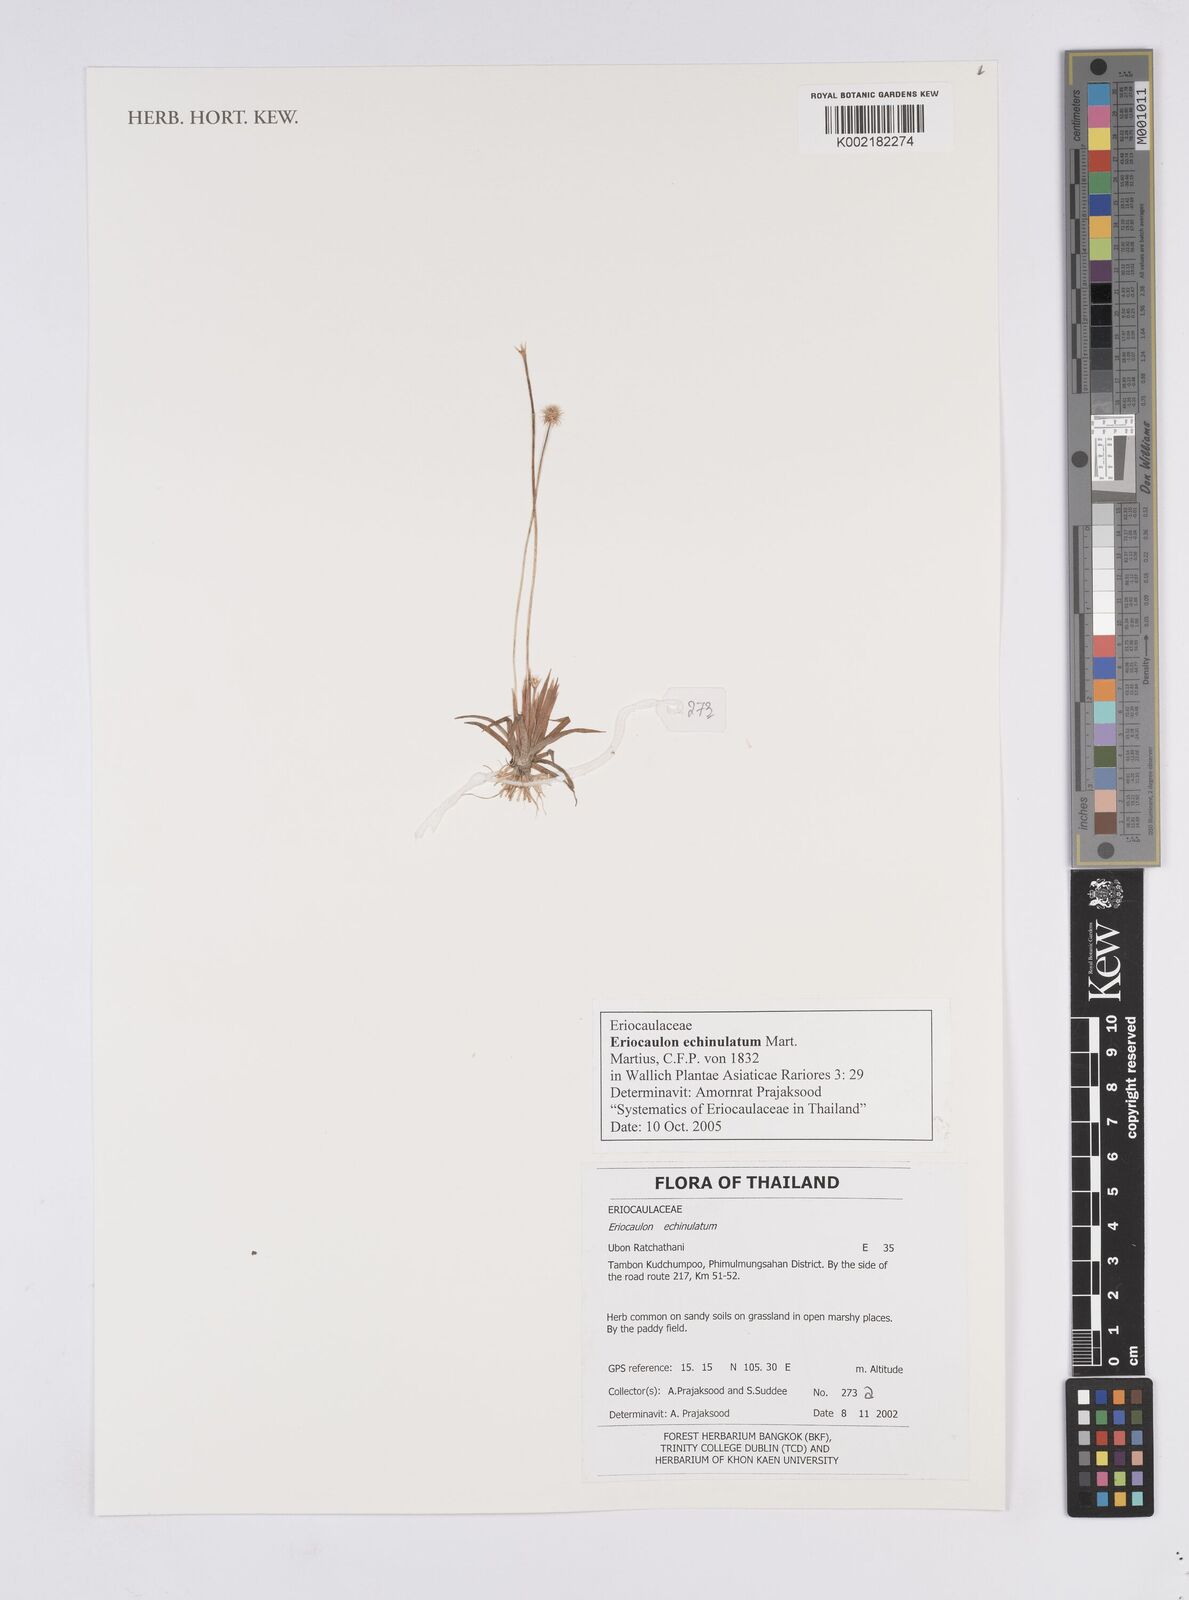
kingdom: Plantae
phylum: Tracheophyta
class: Liliopsida
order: Poales
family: Eriocaulaceae
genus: Eriocaulon
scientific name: Eriocaulon echinulatum
